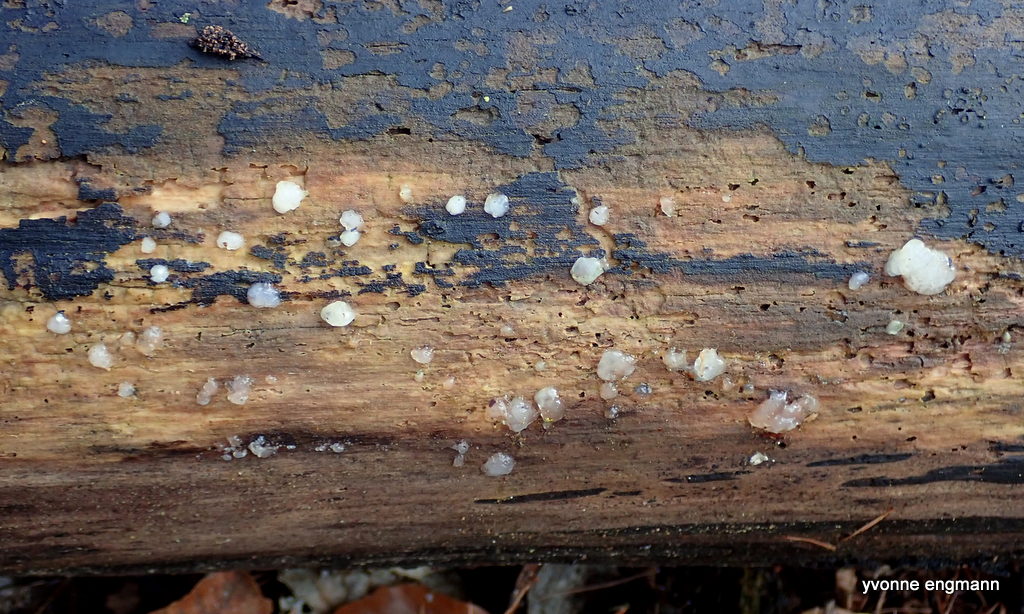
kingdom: Fungi
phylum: Basidiomycota
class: Agaricomycetes
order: Auriculariales
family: Hyaloriaceae
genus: Myxarium
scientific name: Myxarium nucleatum
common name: klar bævretop
